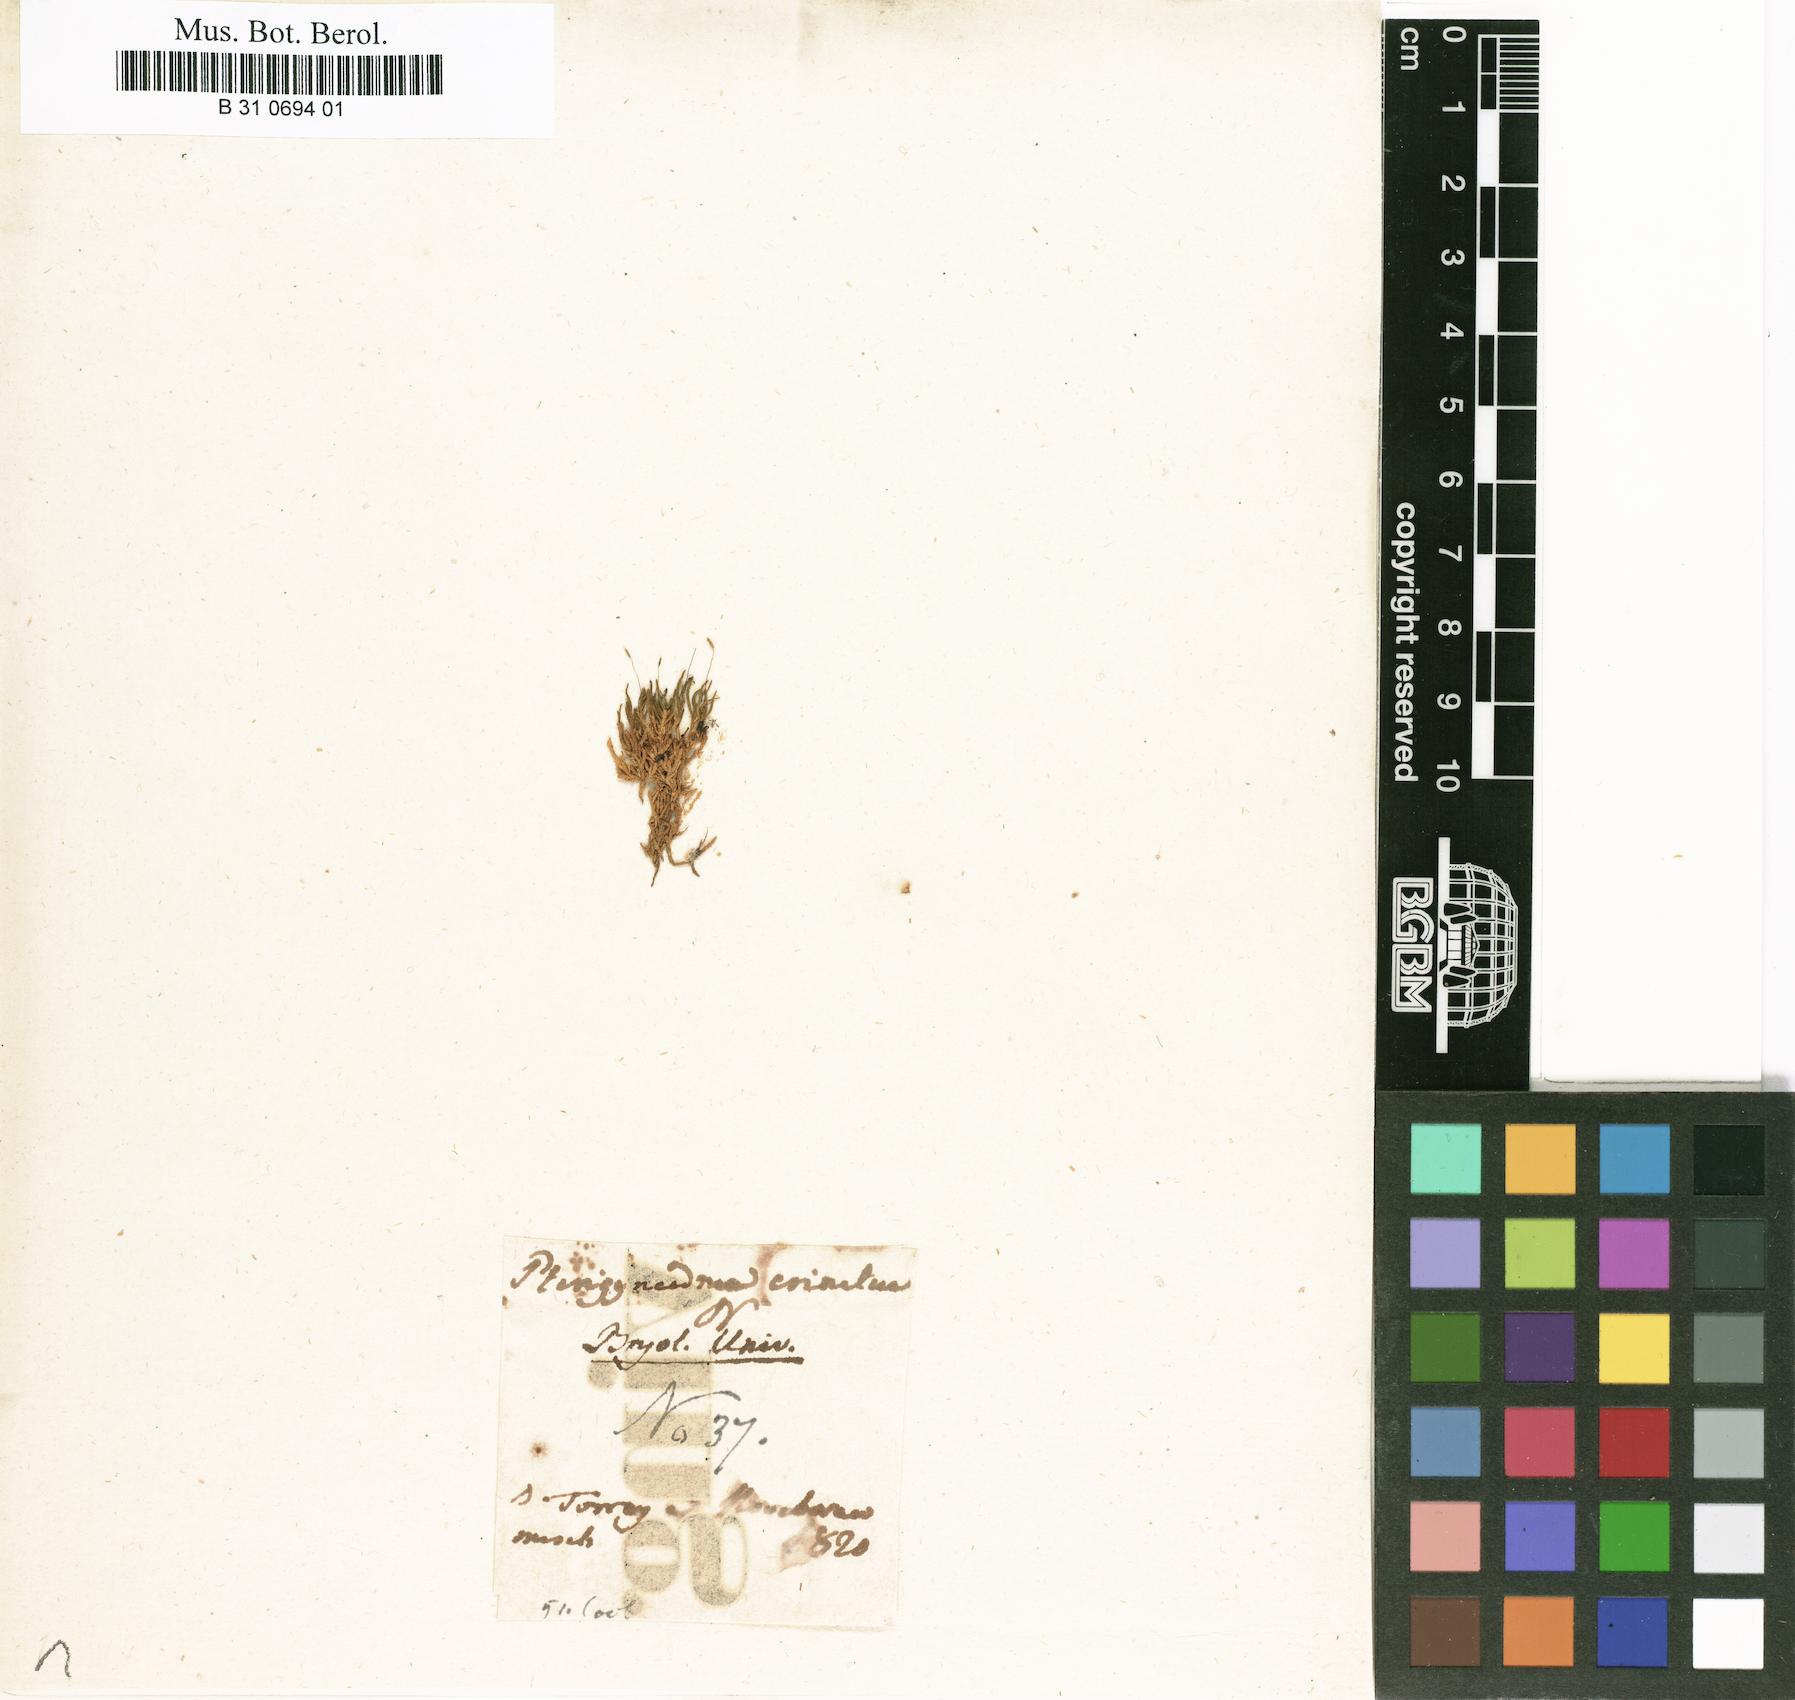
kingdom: Plantae
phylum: Bryophyta
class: Bryopsida
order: Hypnales
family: Brachytheciaceae
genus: Claopodium
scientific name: Claopodium rostratum
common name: Yellow yarn moss
